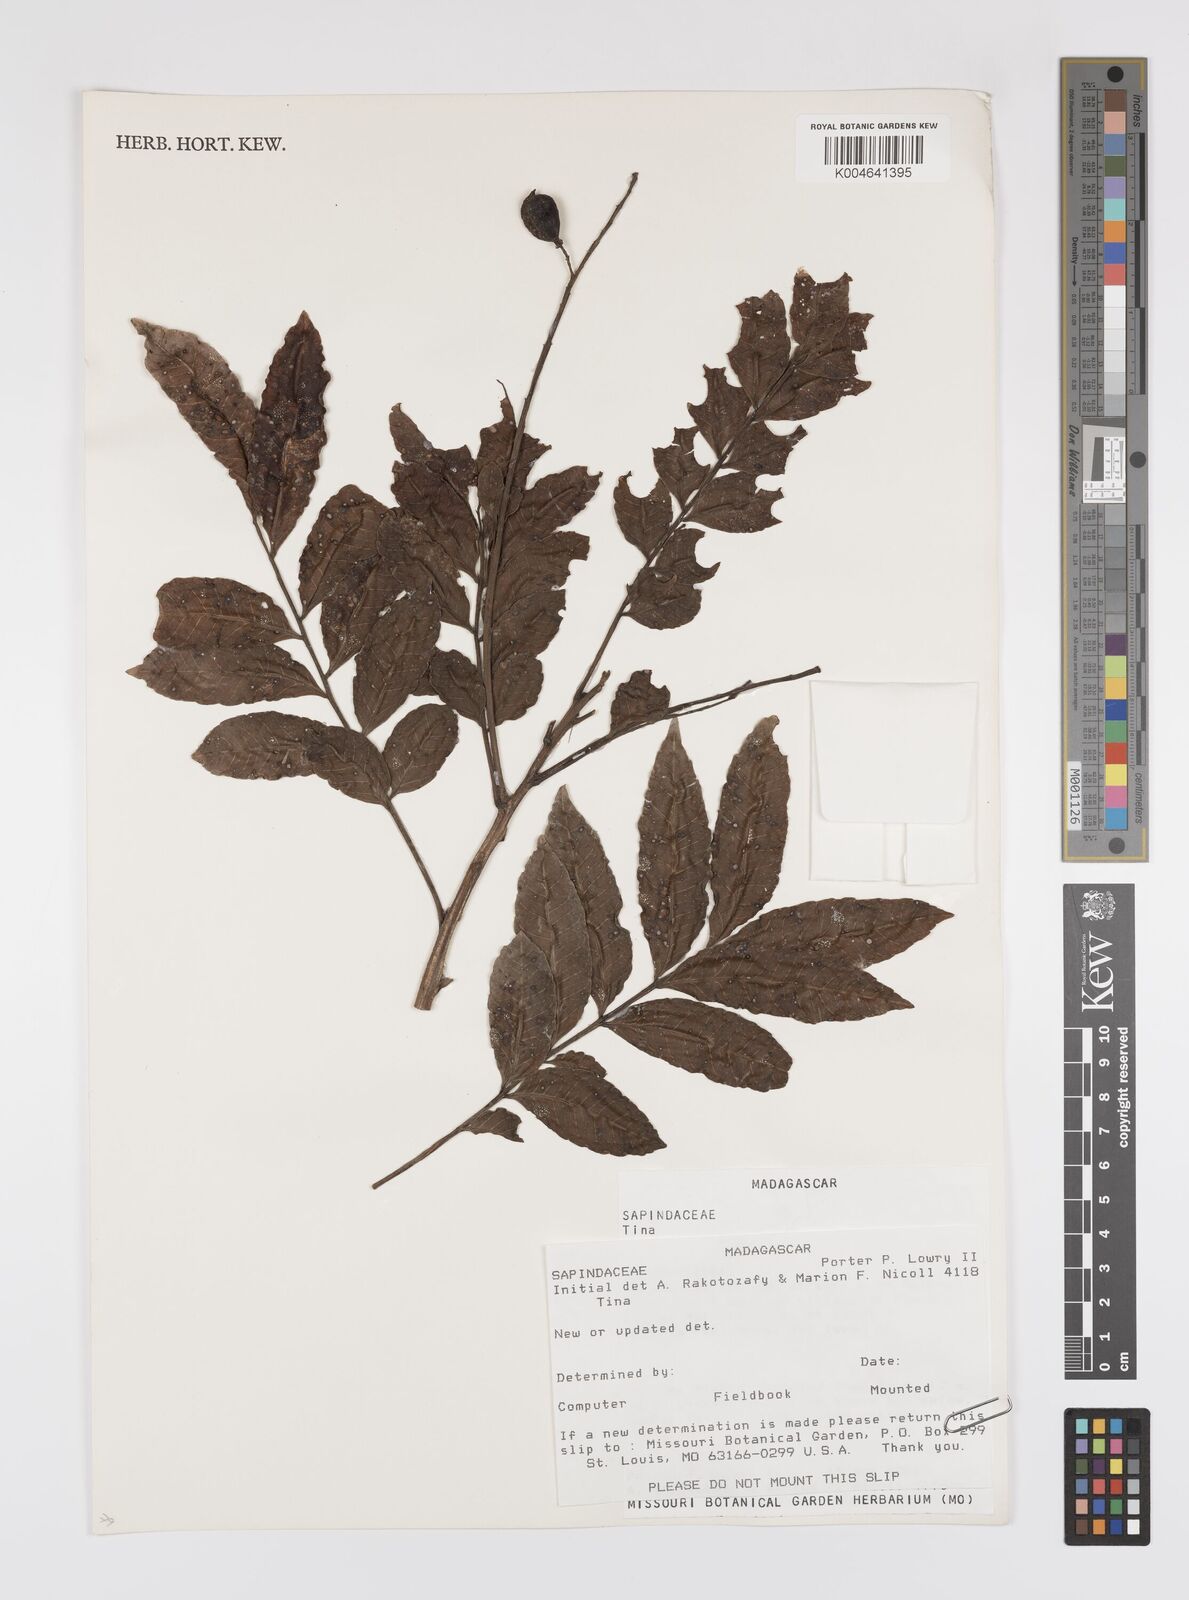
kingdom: Plantae
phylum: Tracheophyta
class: Magnoliopsida
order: Sapindales
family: Sapindaceae
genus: Tina
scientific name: Tina
